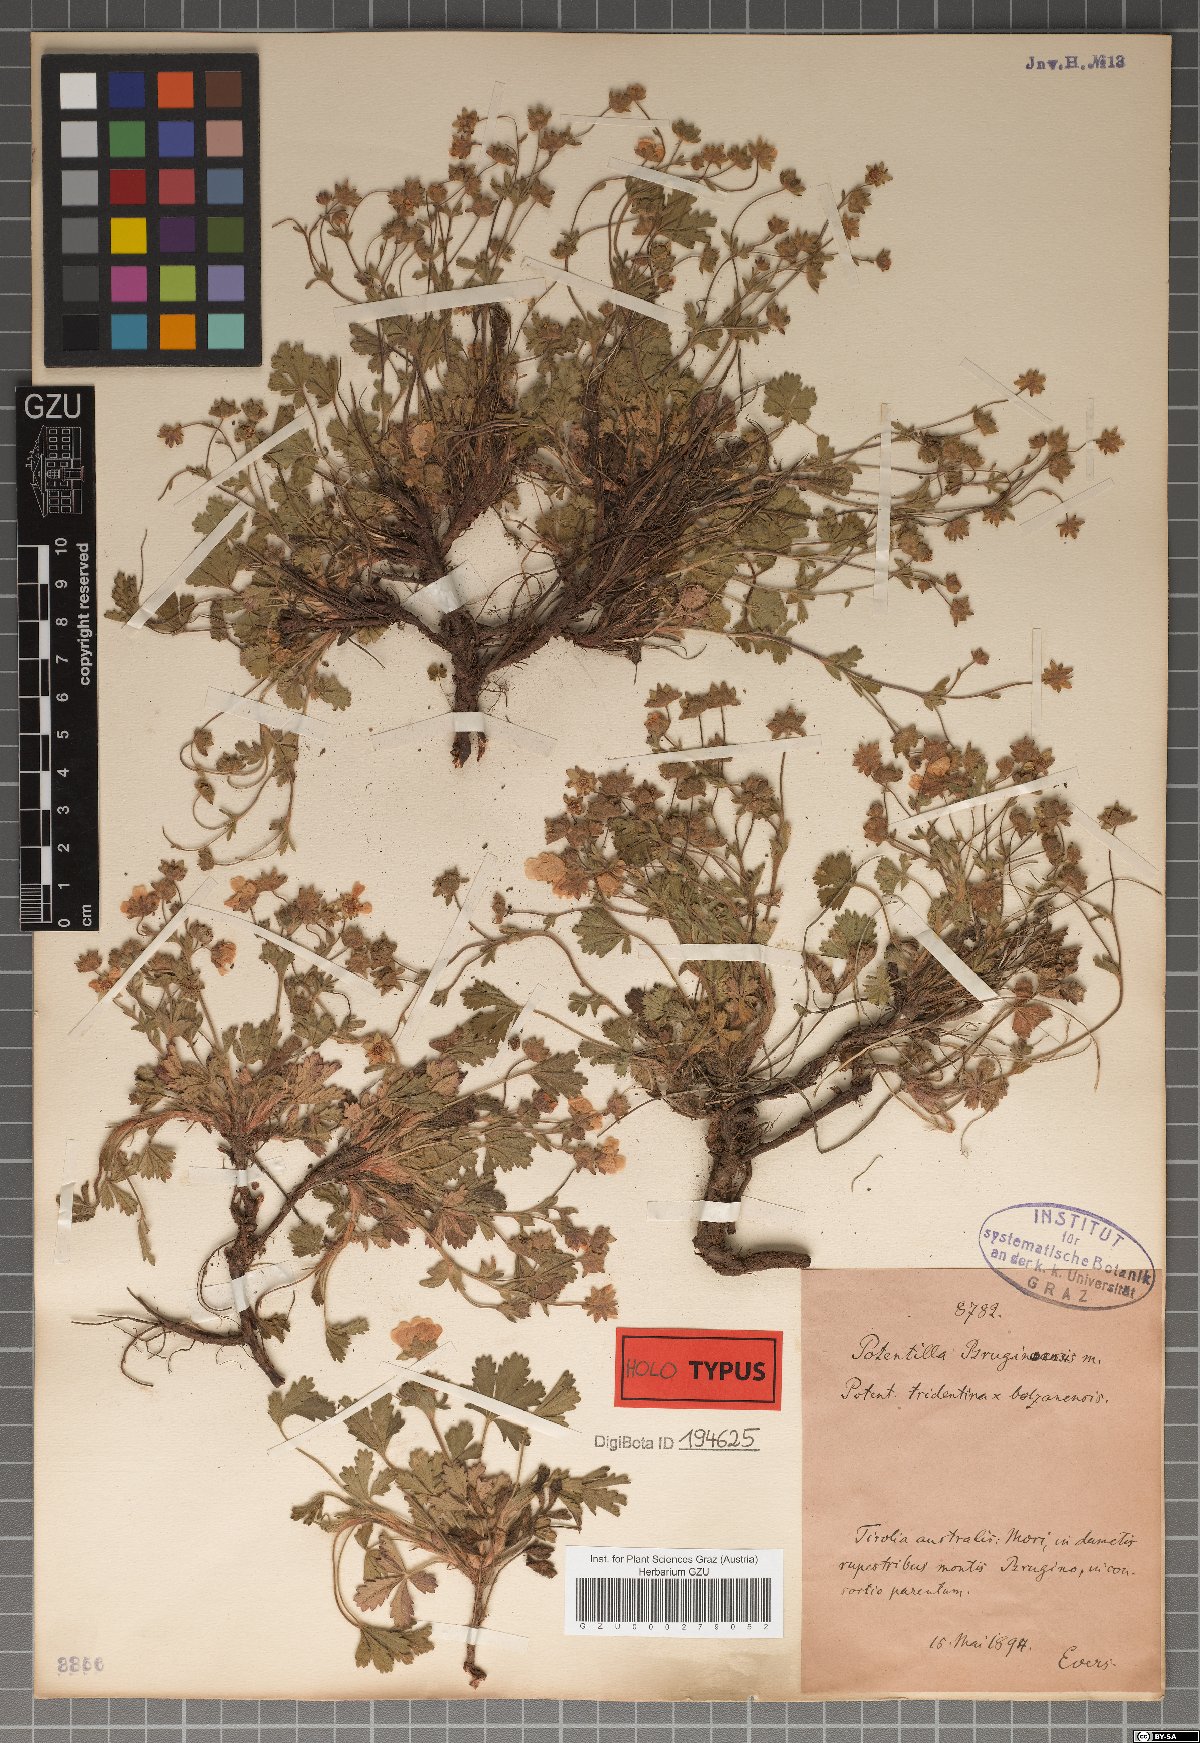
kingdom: Plantae
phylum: Tracheophyta
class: Magnoliopsida
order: Rosales
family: Rosaceae
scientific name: Rosaceae
